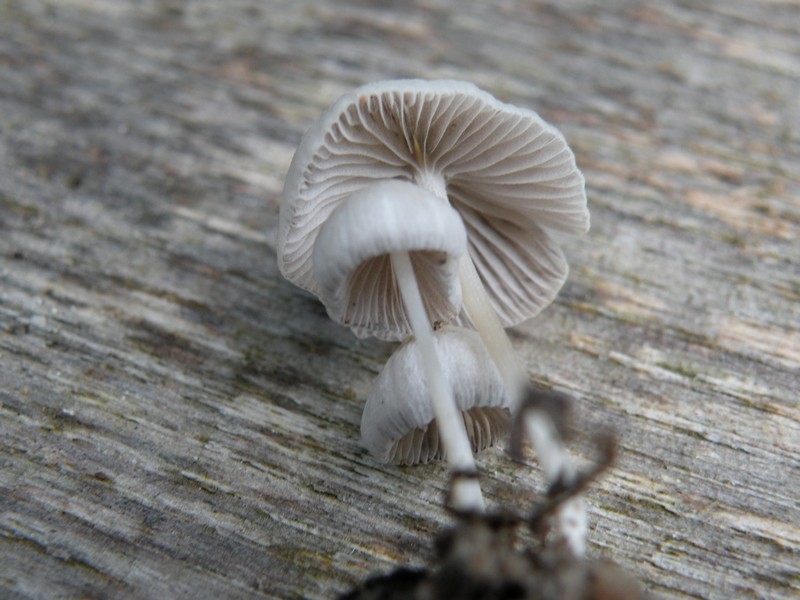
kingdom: Fungi
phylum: Basidiomycota
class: Agaricomycetes
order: Agaricales
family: Psathyrellaceae
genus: Psathyrella
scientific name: Psathyrella sublatispora
